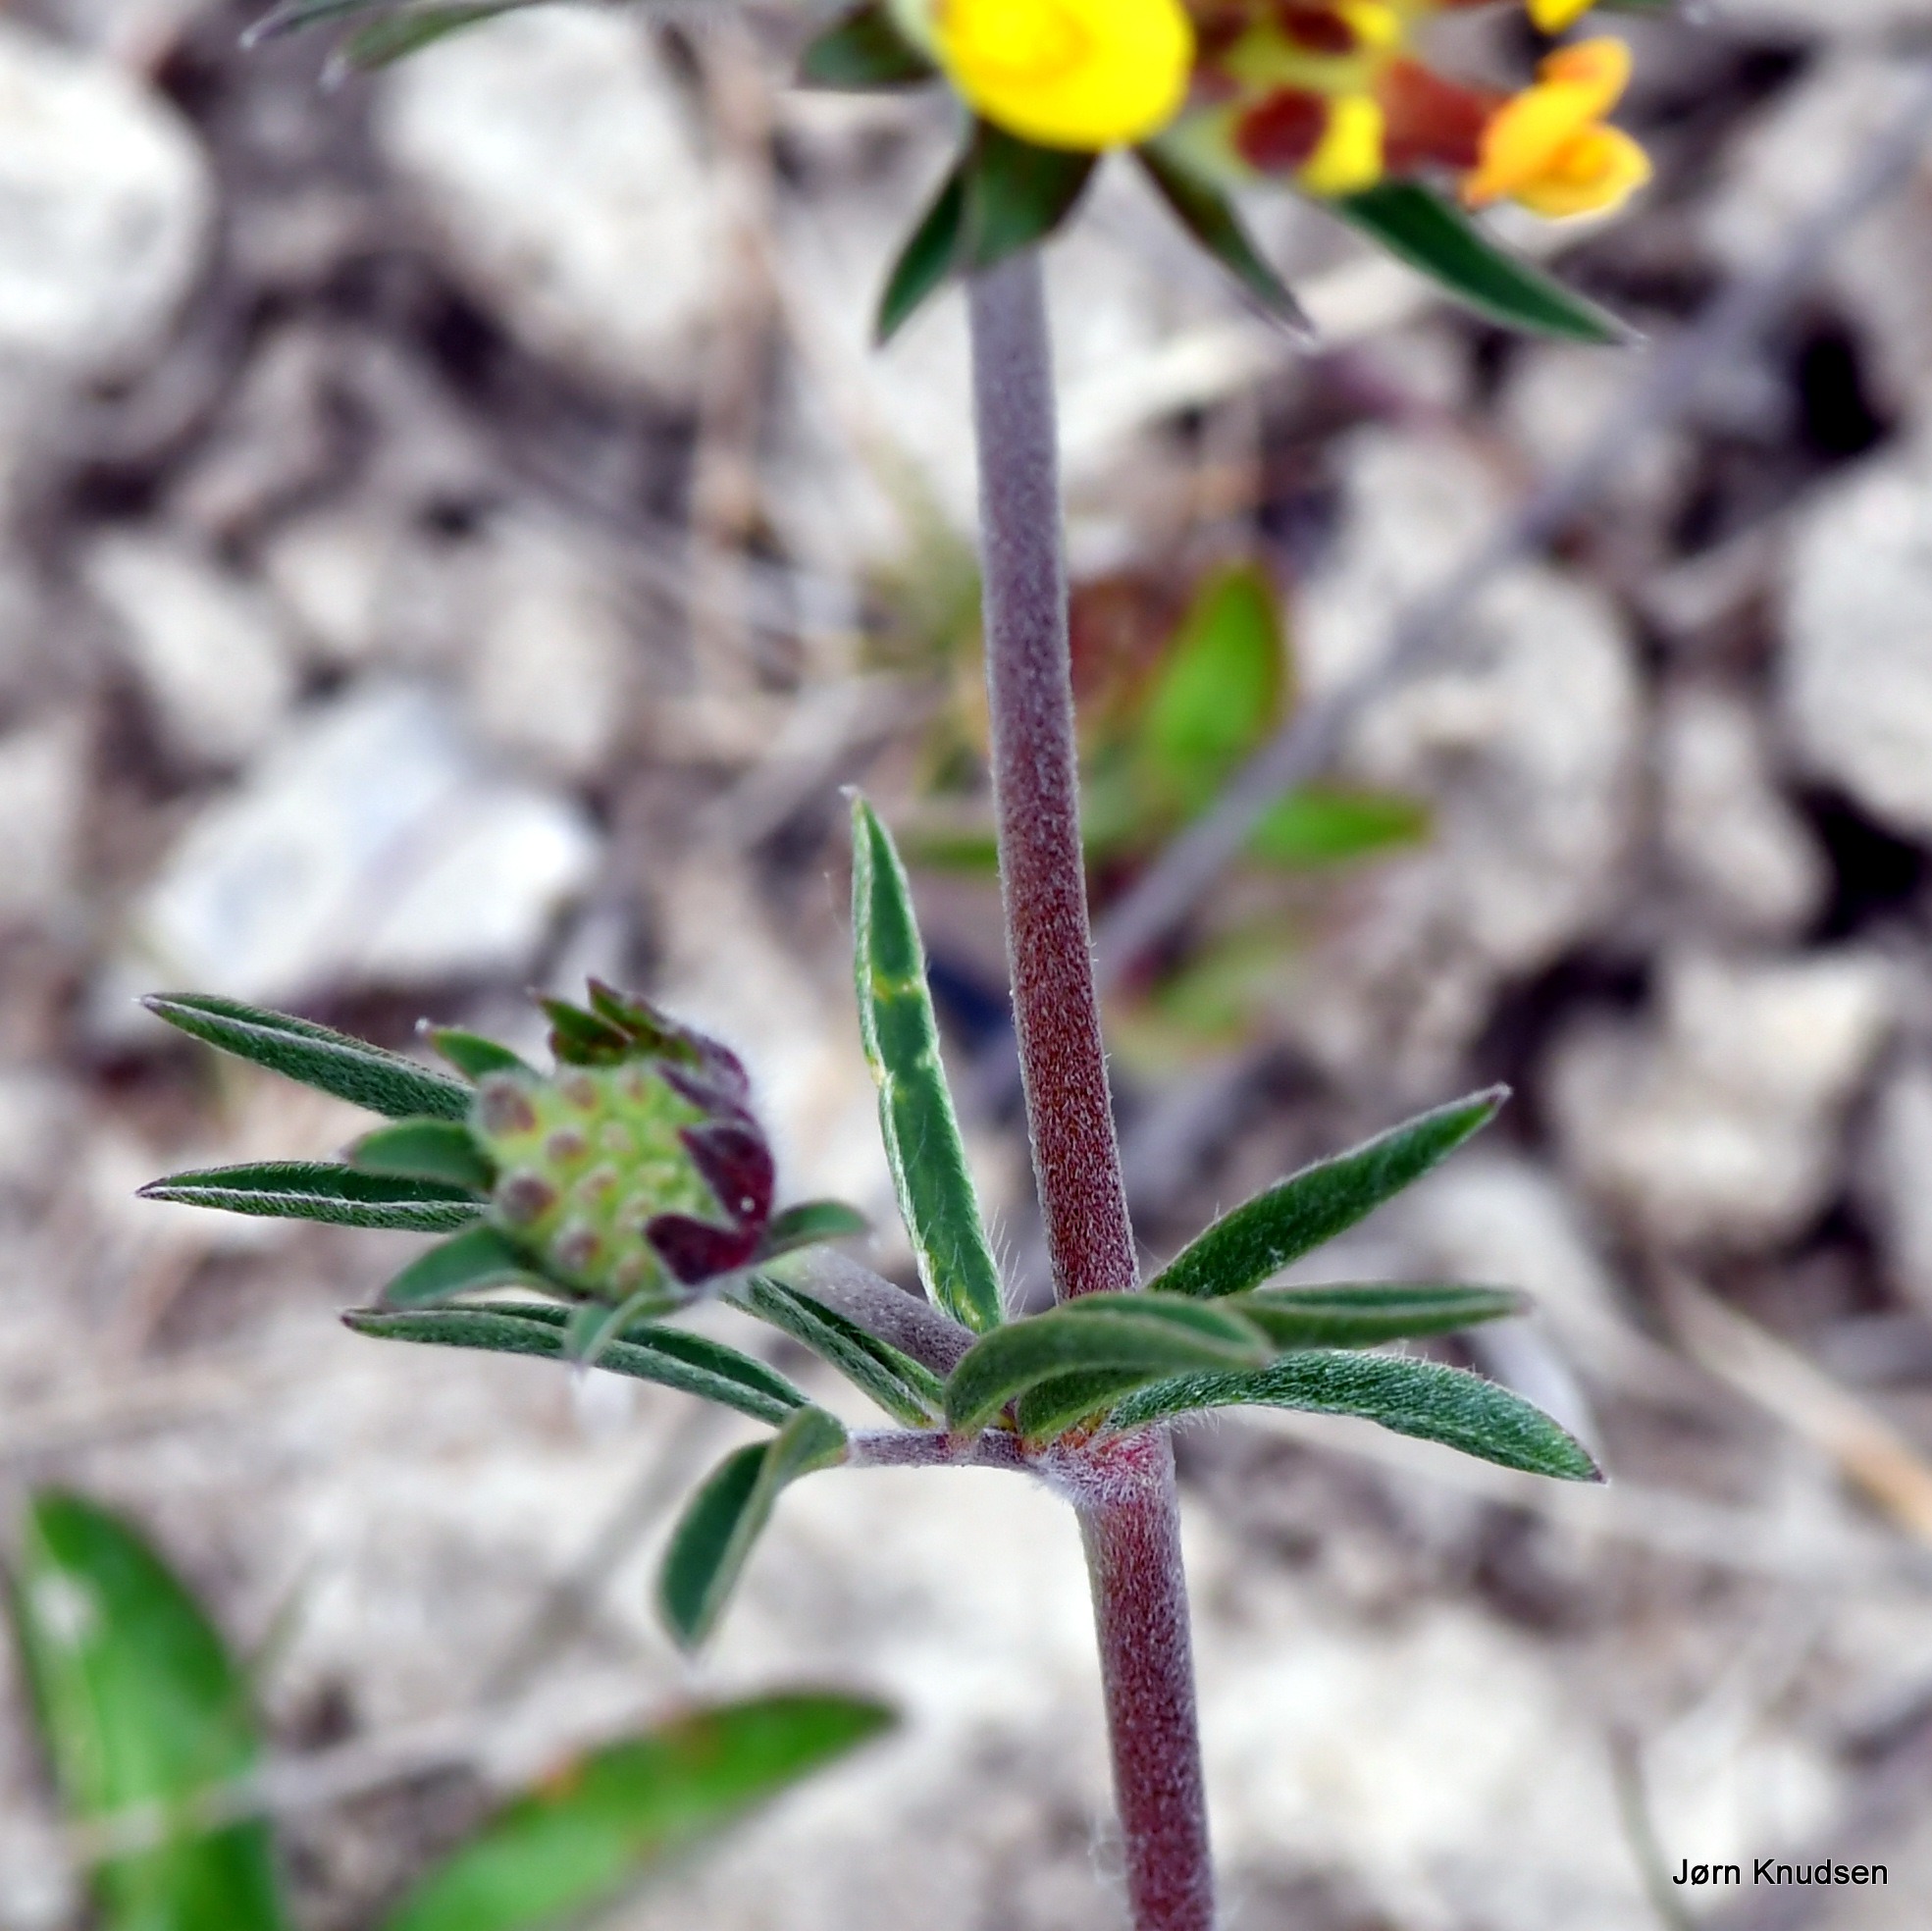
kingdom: Plantae
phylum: Tracheophyta
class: Magnoliopsida
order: Fabales
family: Fabaceae
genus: Anthyllis
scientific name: Anthyllis vulneraria
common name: Rundbælg
